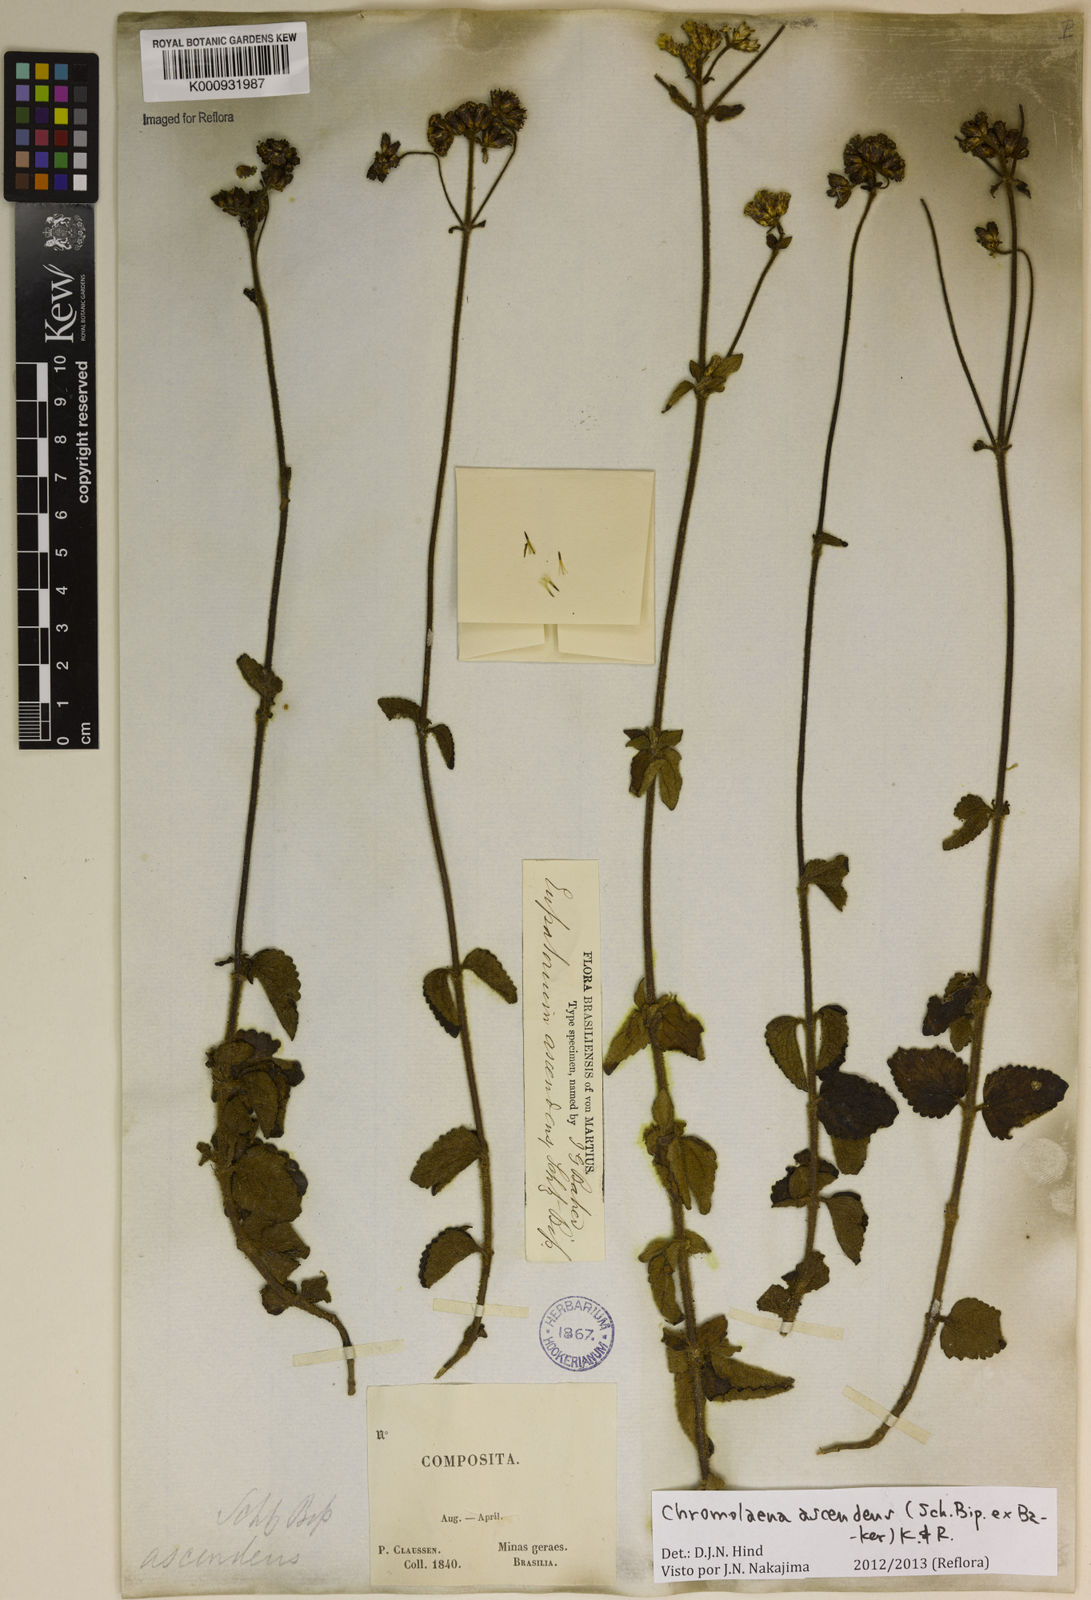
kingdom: Plantae
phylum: Tracheophyta
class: Magnoliopsida
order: Asterales
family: Asteraceae
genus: Chromolaena
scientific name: Chromolaena ascendens
